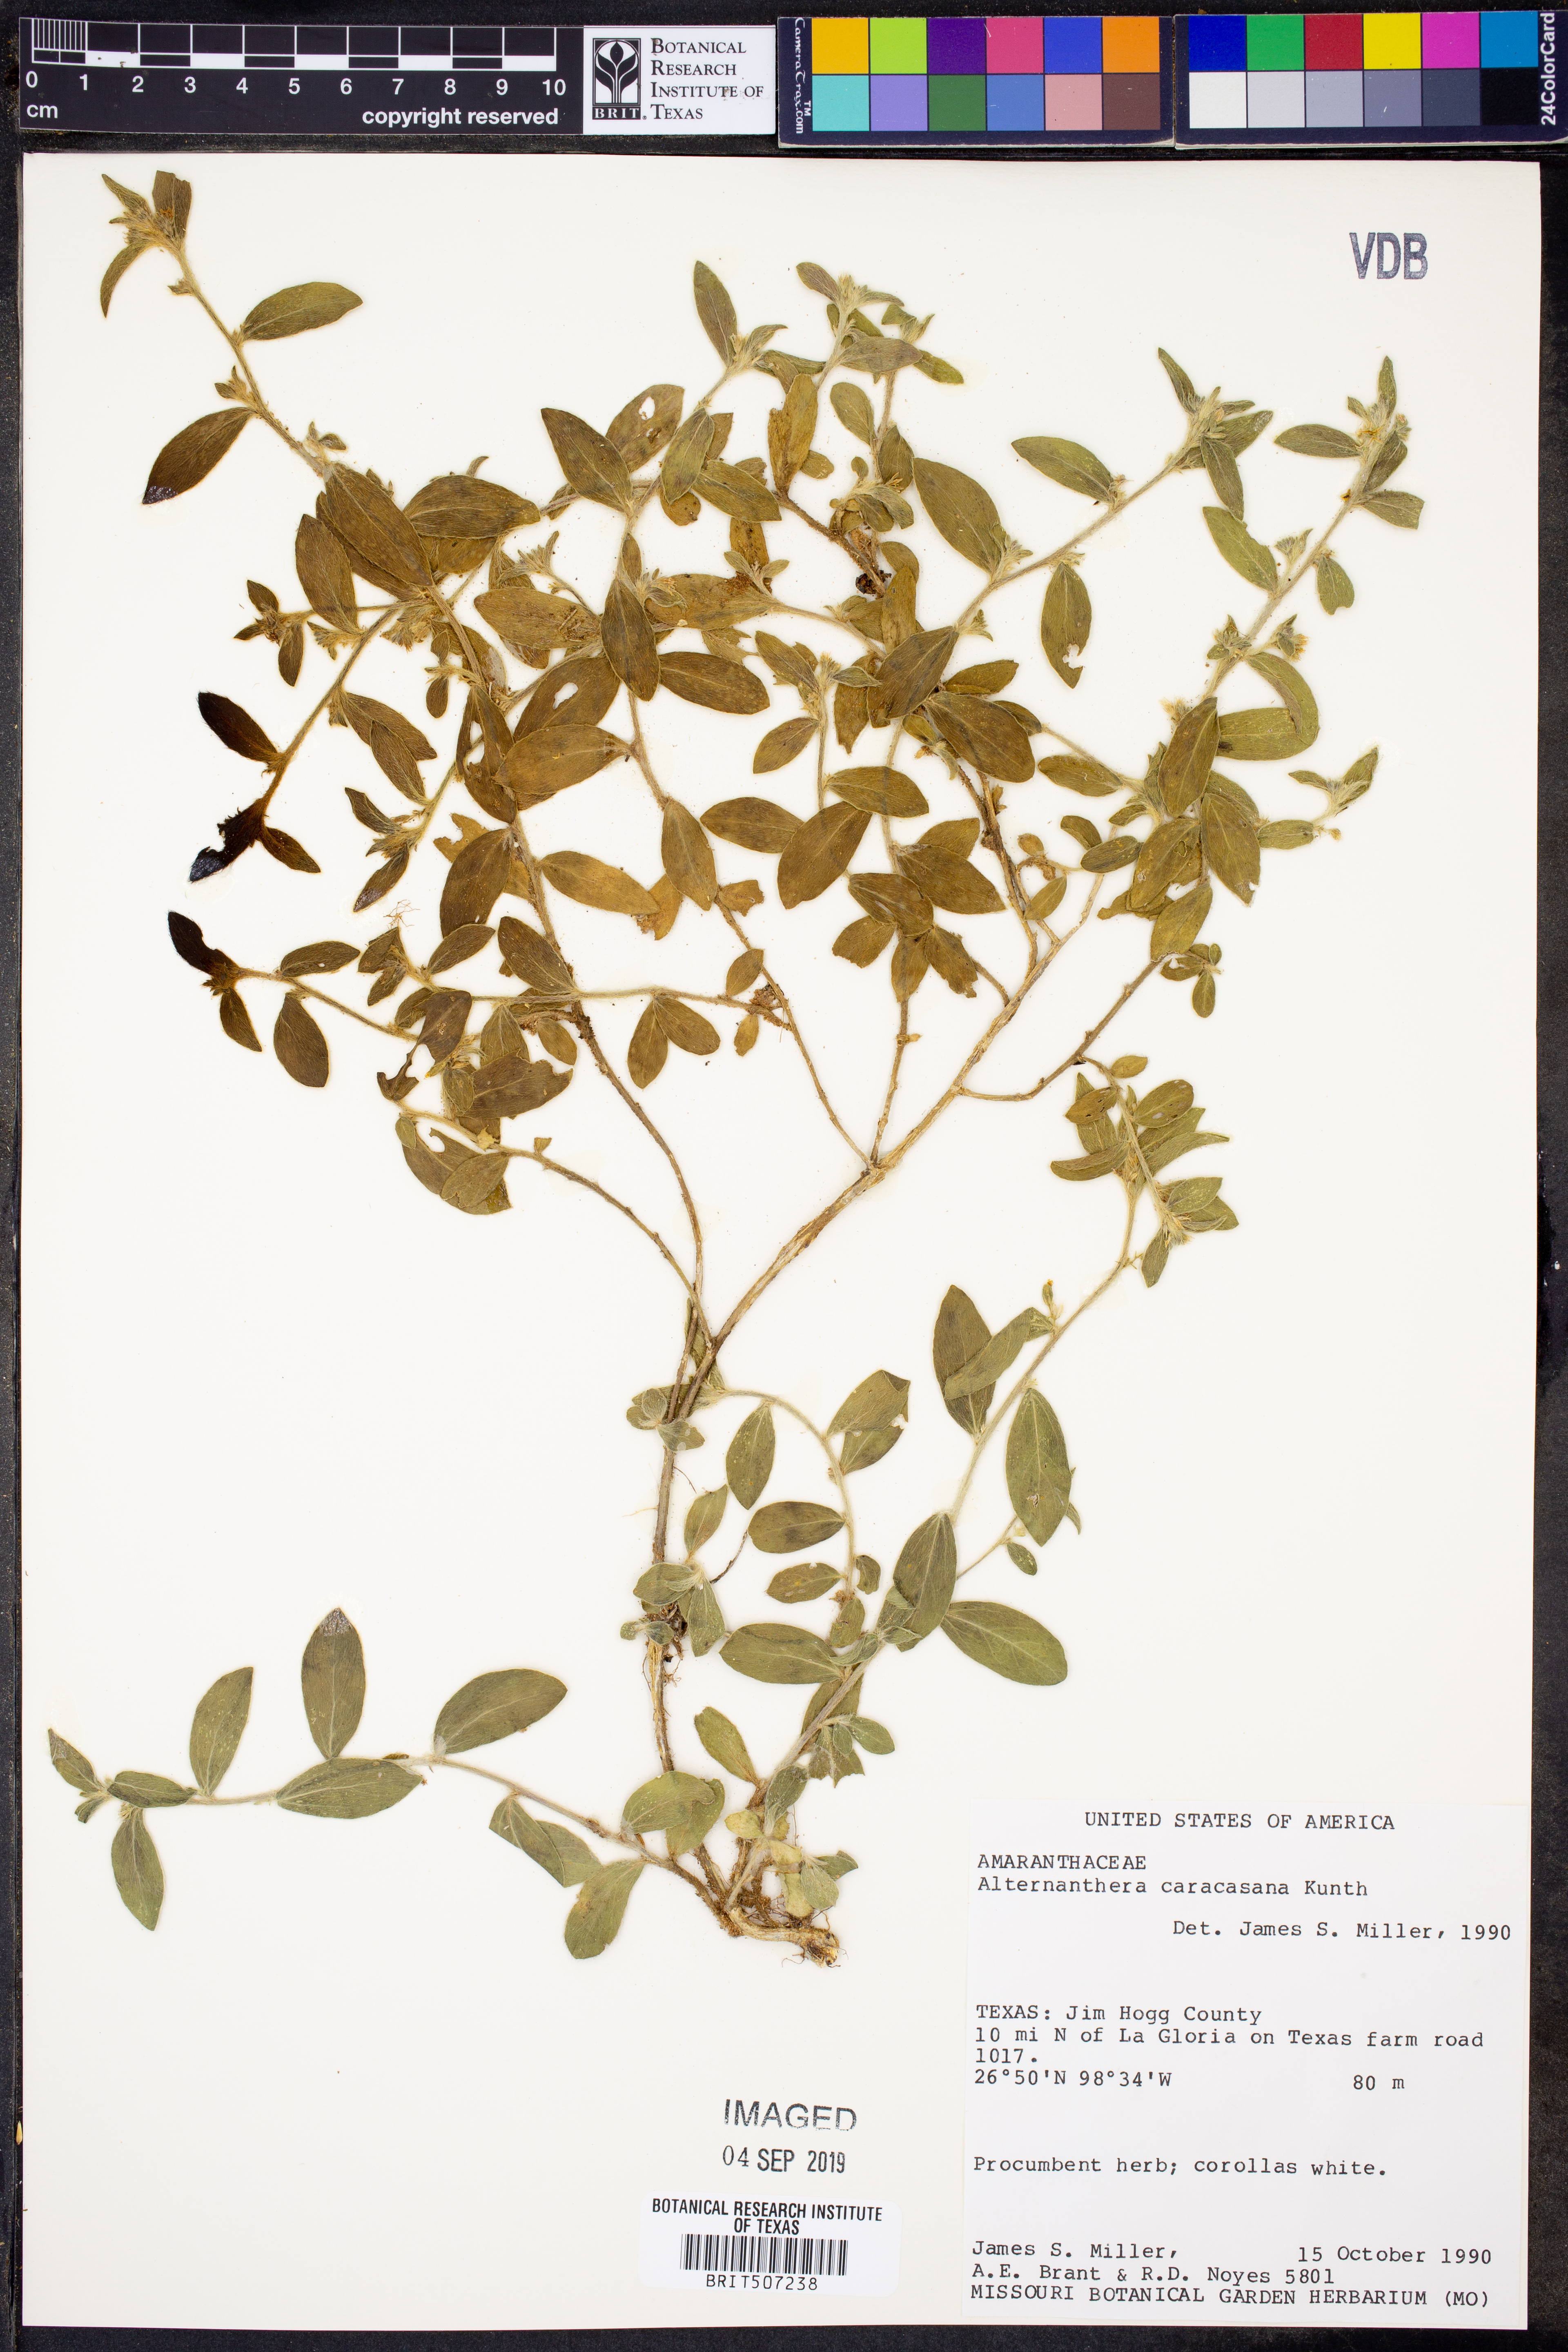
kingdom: Plantae
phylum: Tracheophyta
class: Magnoliopsida
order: Caryophyllales
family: Amaranthaceae
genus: Alternanthera
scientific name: Alternanthera caracasana
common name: Washerwoman
